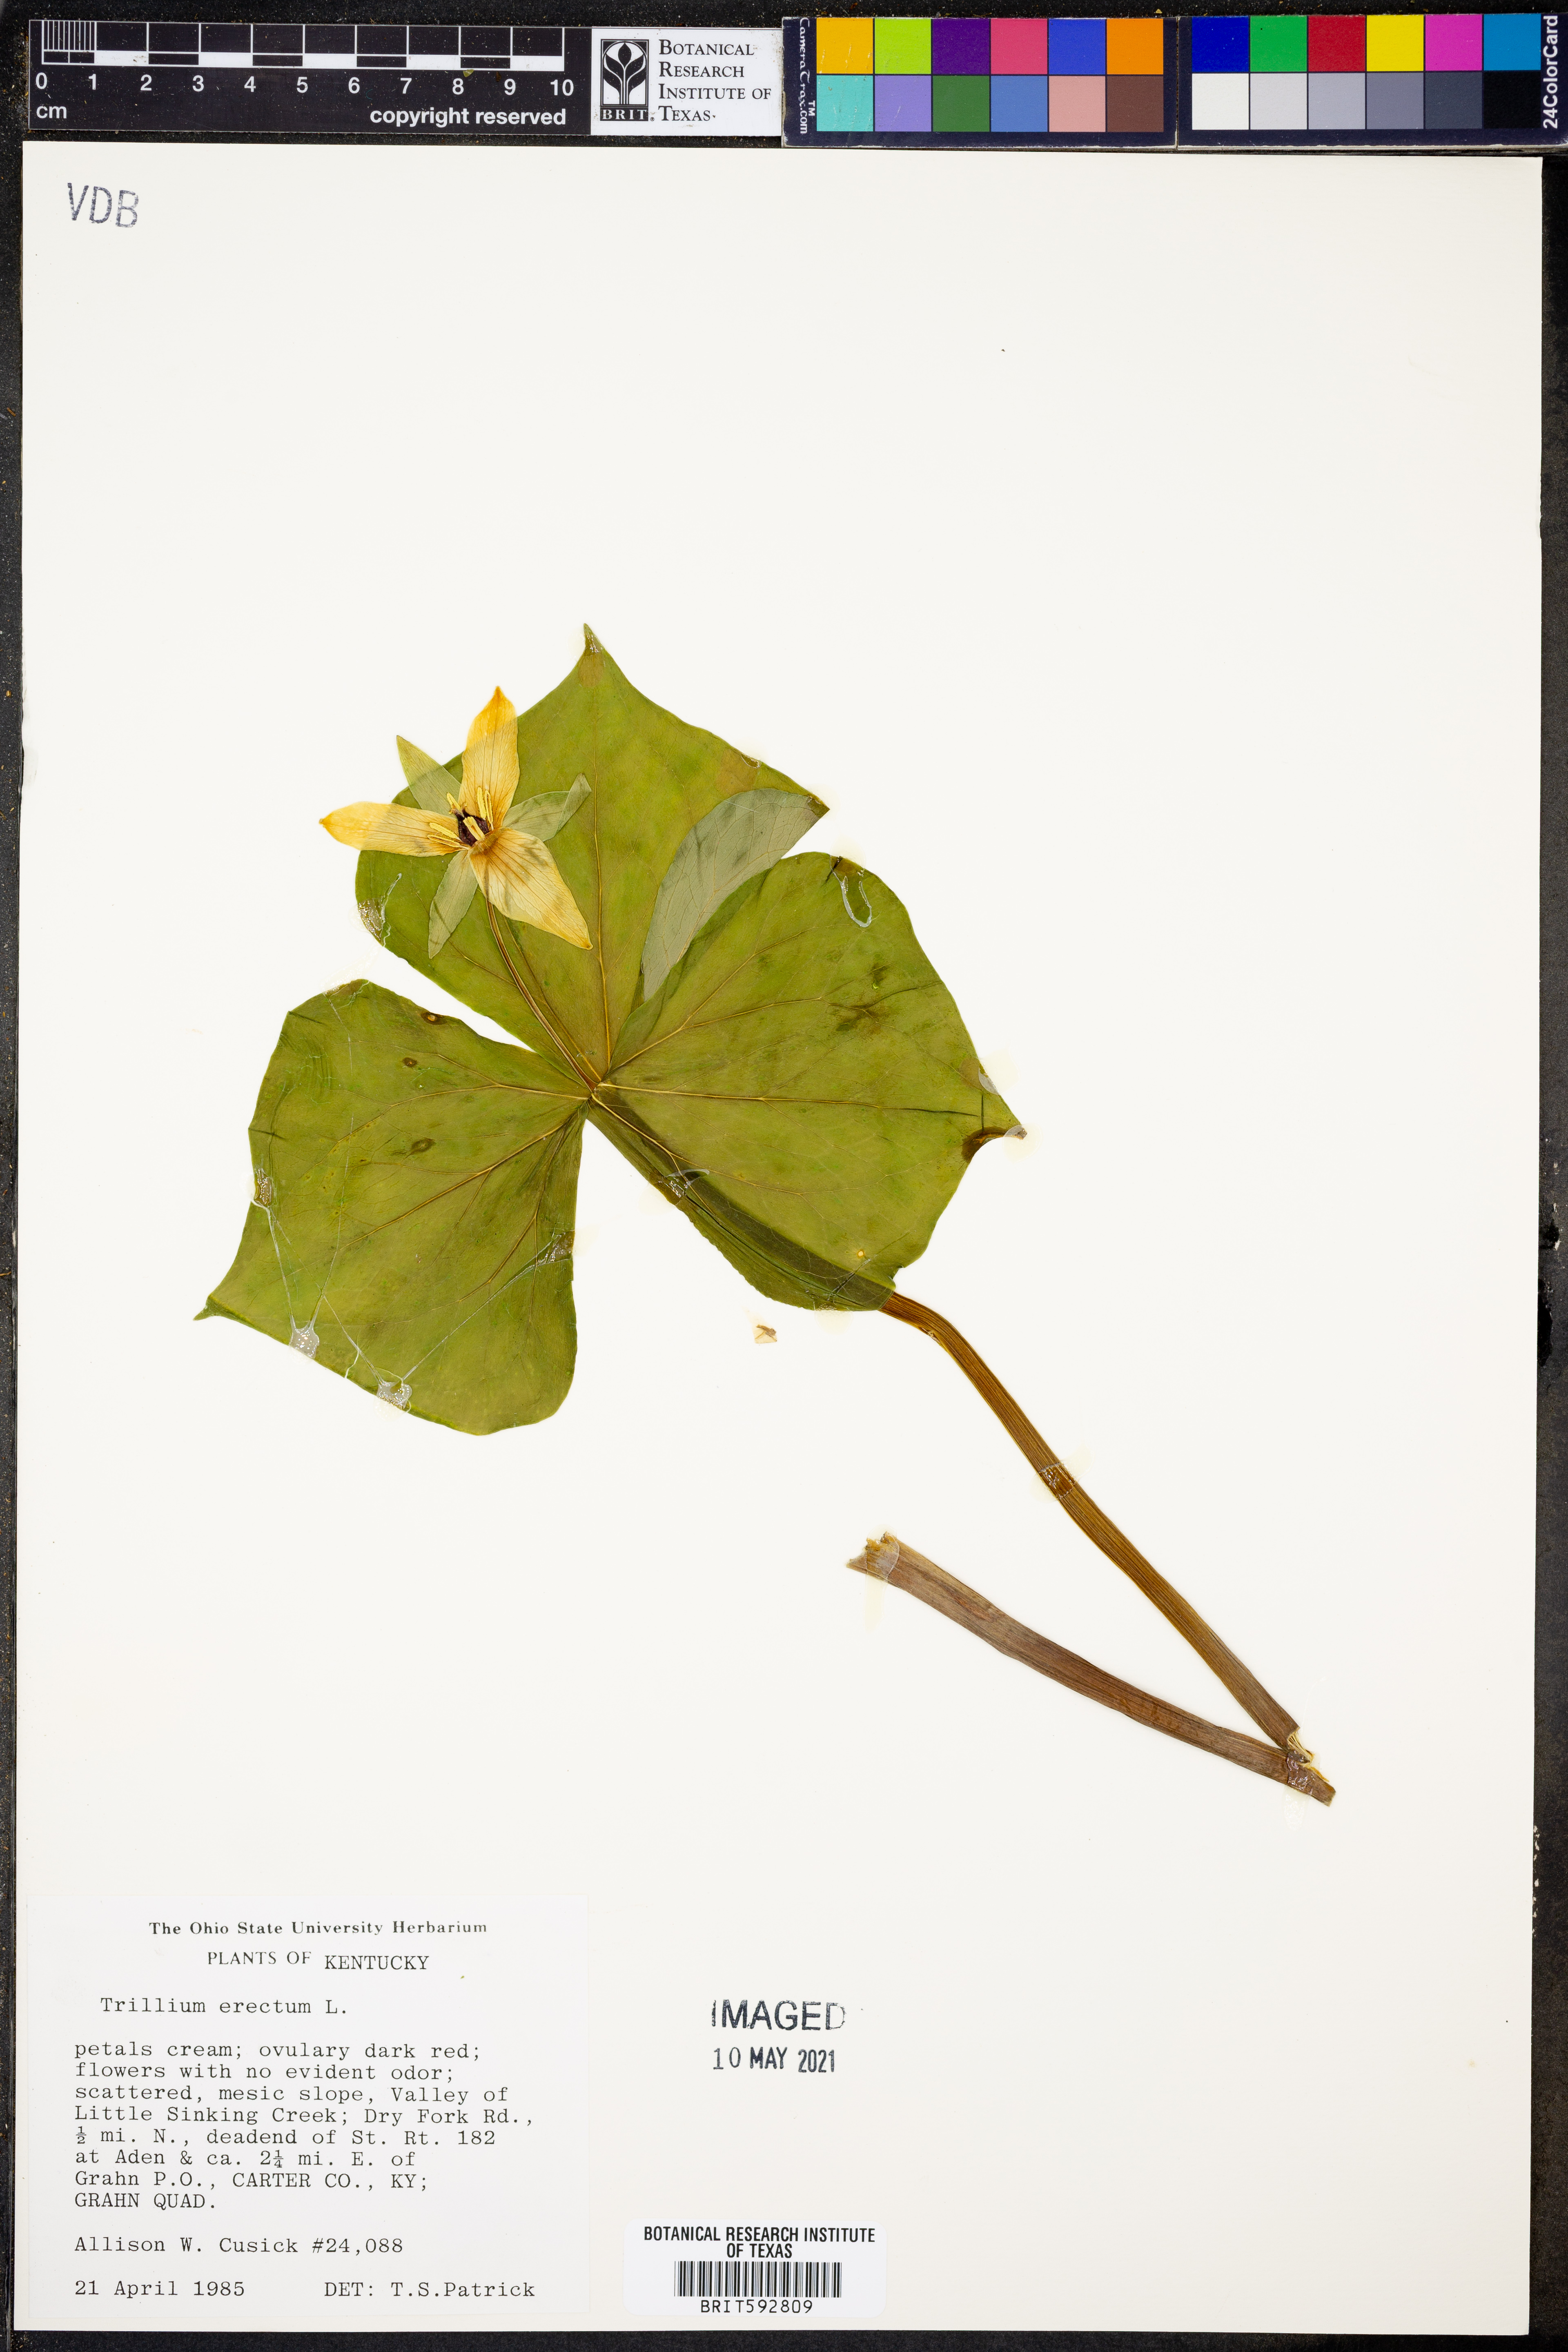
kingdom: Plantae
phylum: Tracheophyta
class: Liliopsida
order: Liliales
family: Melanthiaceae
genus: Trillium
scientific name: Trillium erectum
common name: Purple trillium
